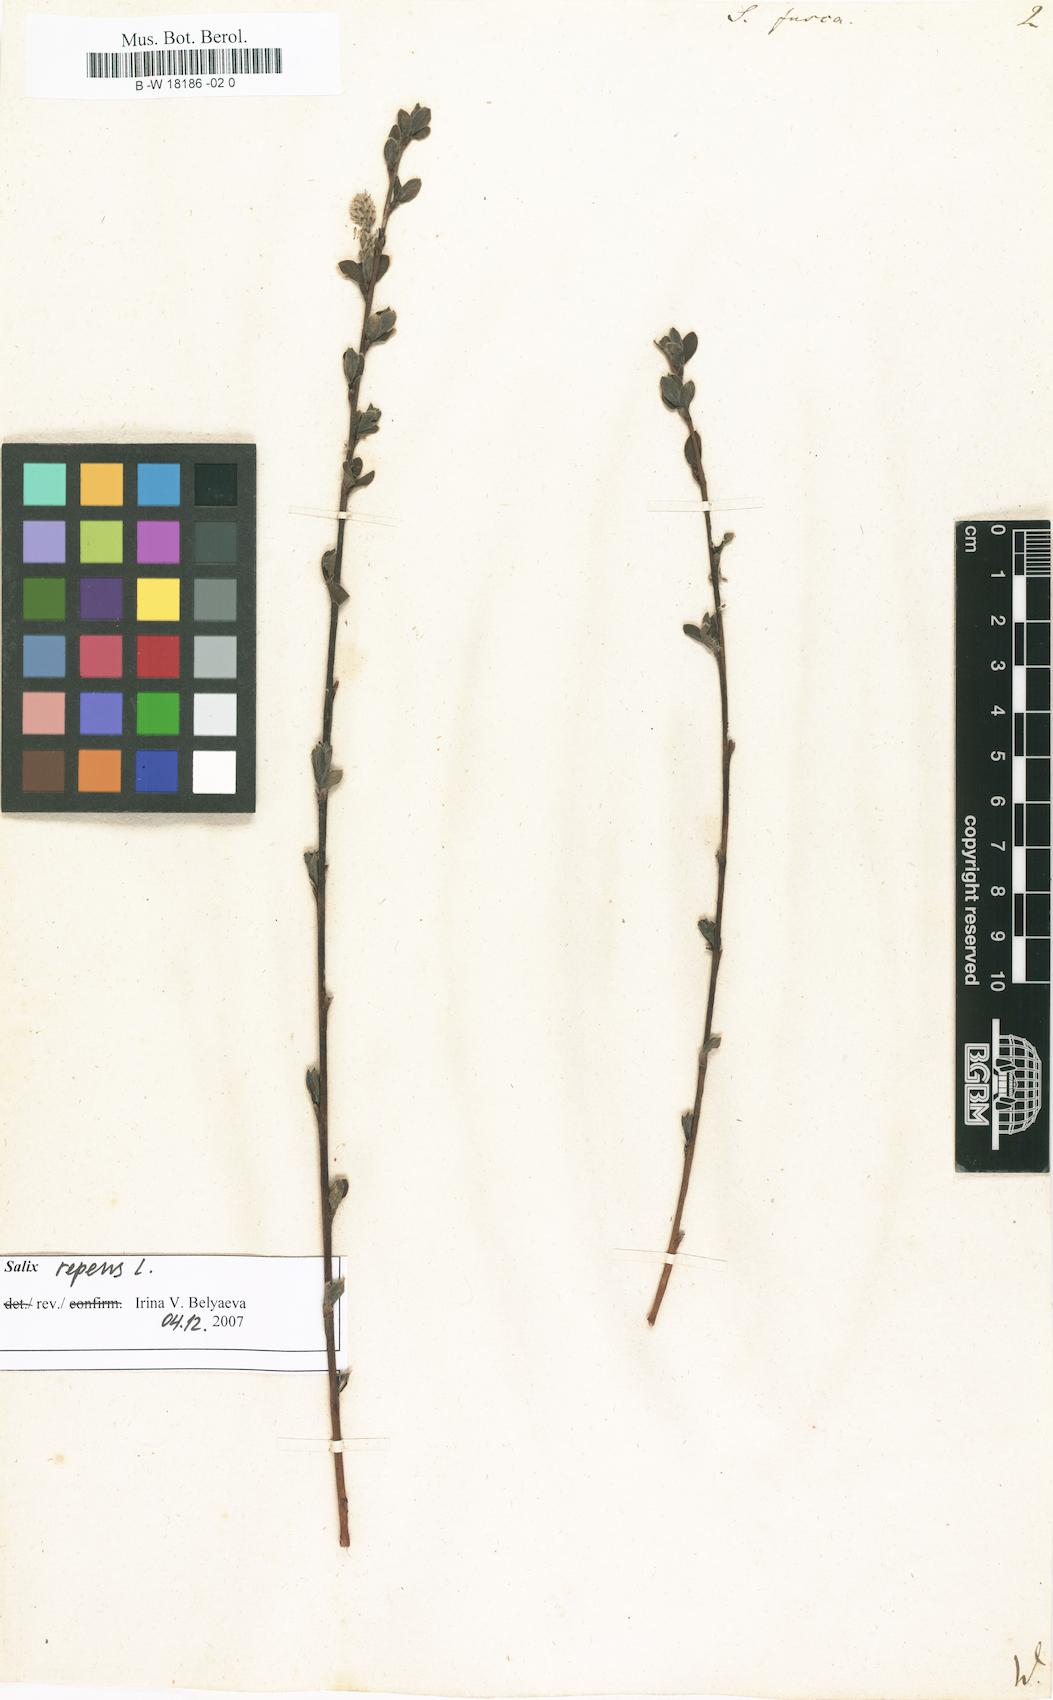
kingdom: Plantae
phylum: Tracheophyta
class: Magnoliopsida
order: Malpighiales
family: Salicaceae
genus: Salix
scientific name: Salix repens
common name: Creeping willow
